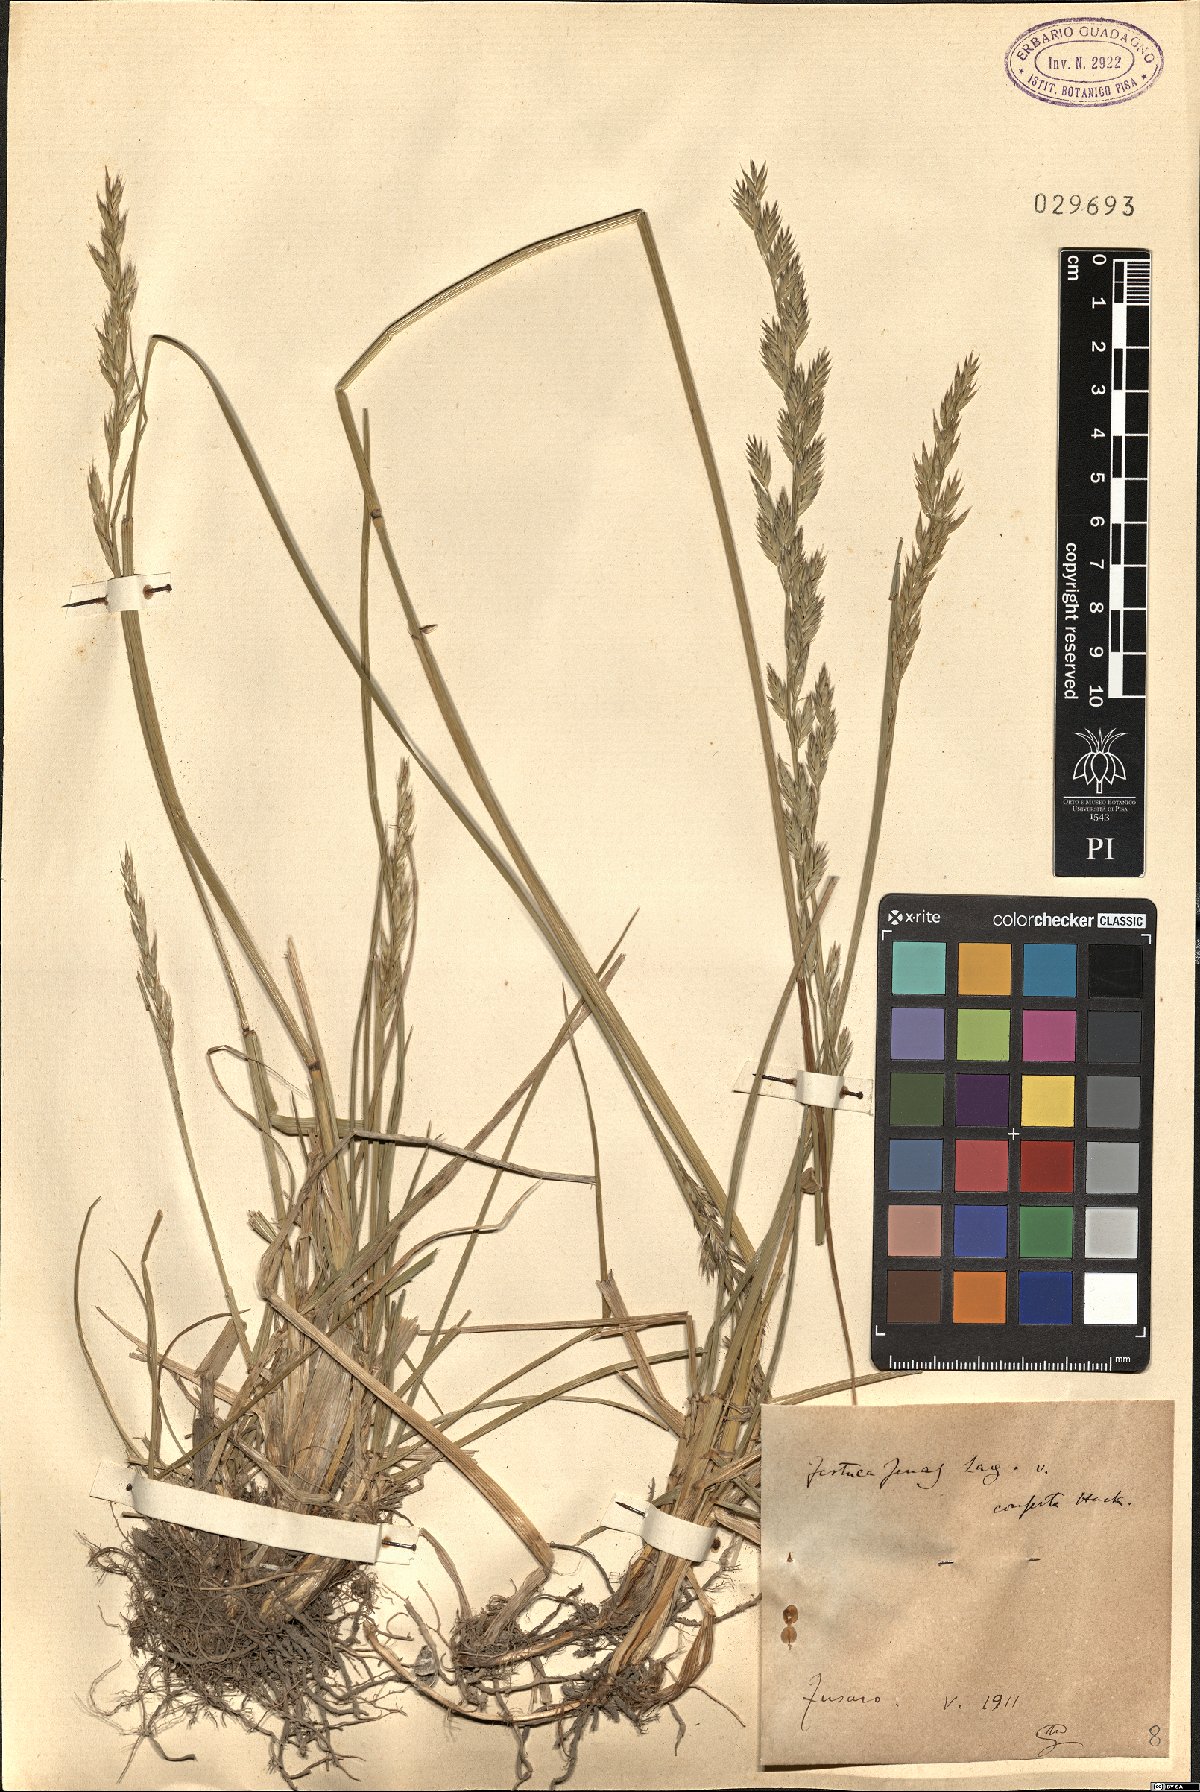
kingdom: Plantae
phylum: Tracheophyta
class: Liliopsida
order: Poales
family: Poaceae
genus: Lolium
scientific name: Lolium arundinaceum
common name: Reed fescue
